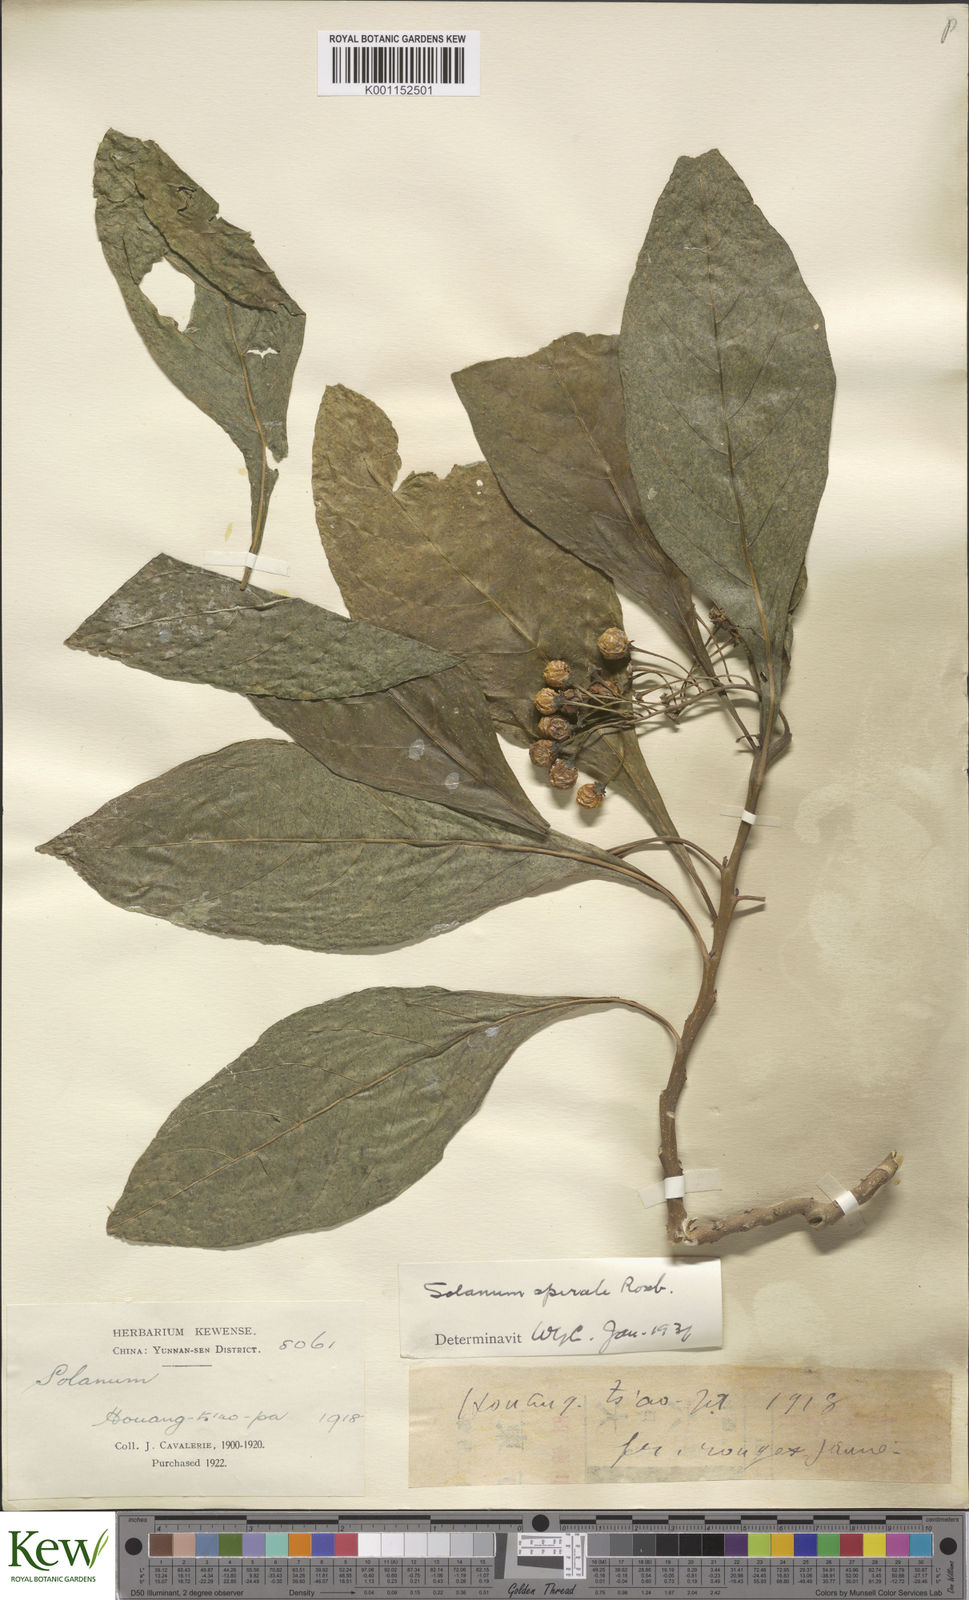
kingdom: Plantae
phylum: Tracheophyta
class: Magnoliopsida
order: Solanales
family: Solanaceae
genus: Solanum
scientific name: Solanum spirale
